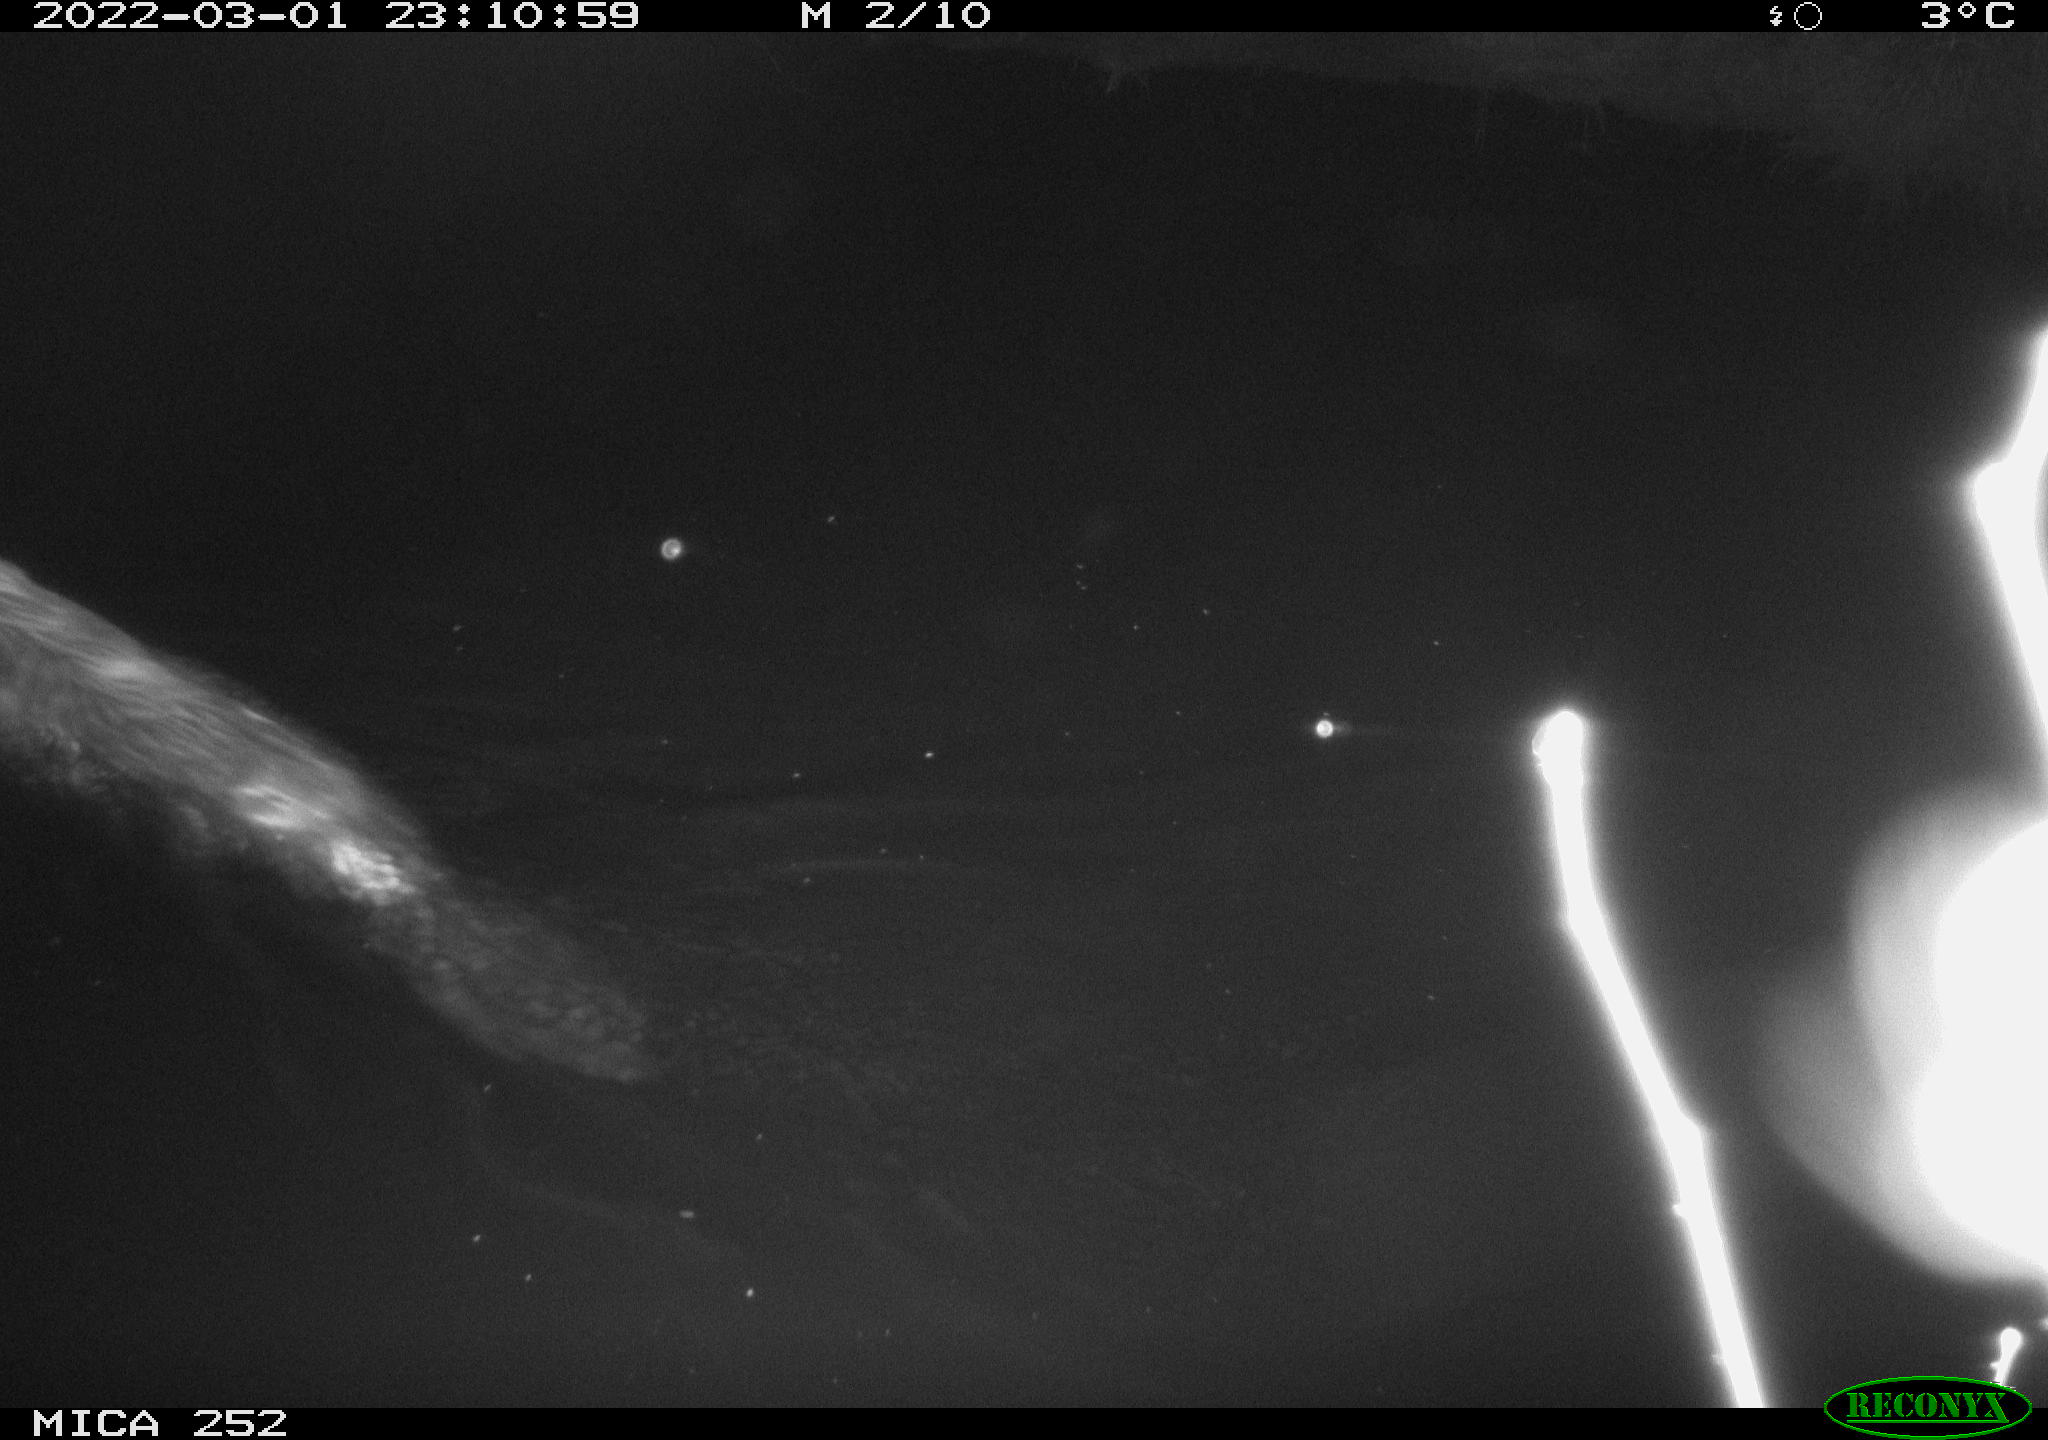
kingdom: Animalia
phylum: Chordata
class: Mammalia
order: Rodentia
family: Castoridae
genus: Castor
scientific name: Castor fiber
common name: Eurasian beaver
